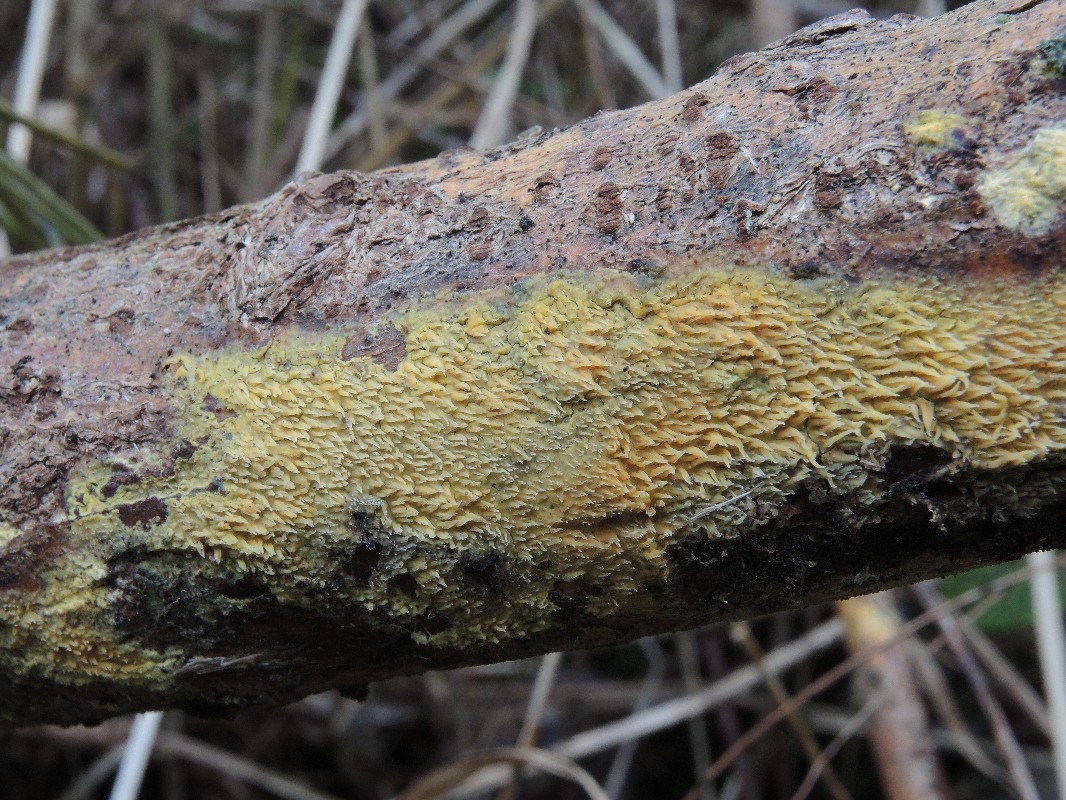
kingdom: Fungi
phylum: Basidiomycota
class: Agaricomycetes
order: Polyporales
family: Meruliaceae
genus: Mycoacia
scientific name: Mycoacia uda
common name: citrongul vokspig
